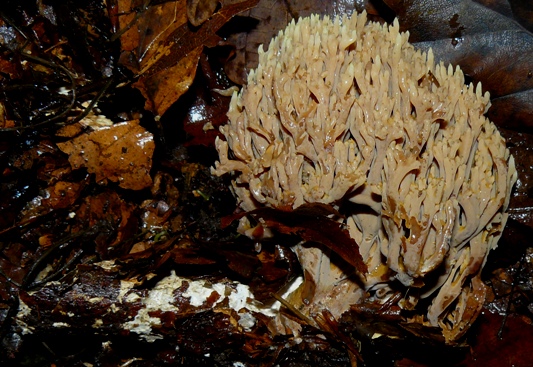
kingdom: Fungi
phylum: Basidiomycota
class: Agaricomycetes
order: Gomphales
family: Gomphaceae
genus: Ramaria
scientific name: Ramaria stricta
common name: rank koralsvamp
